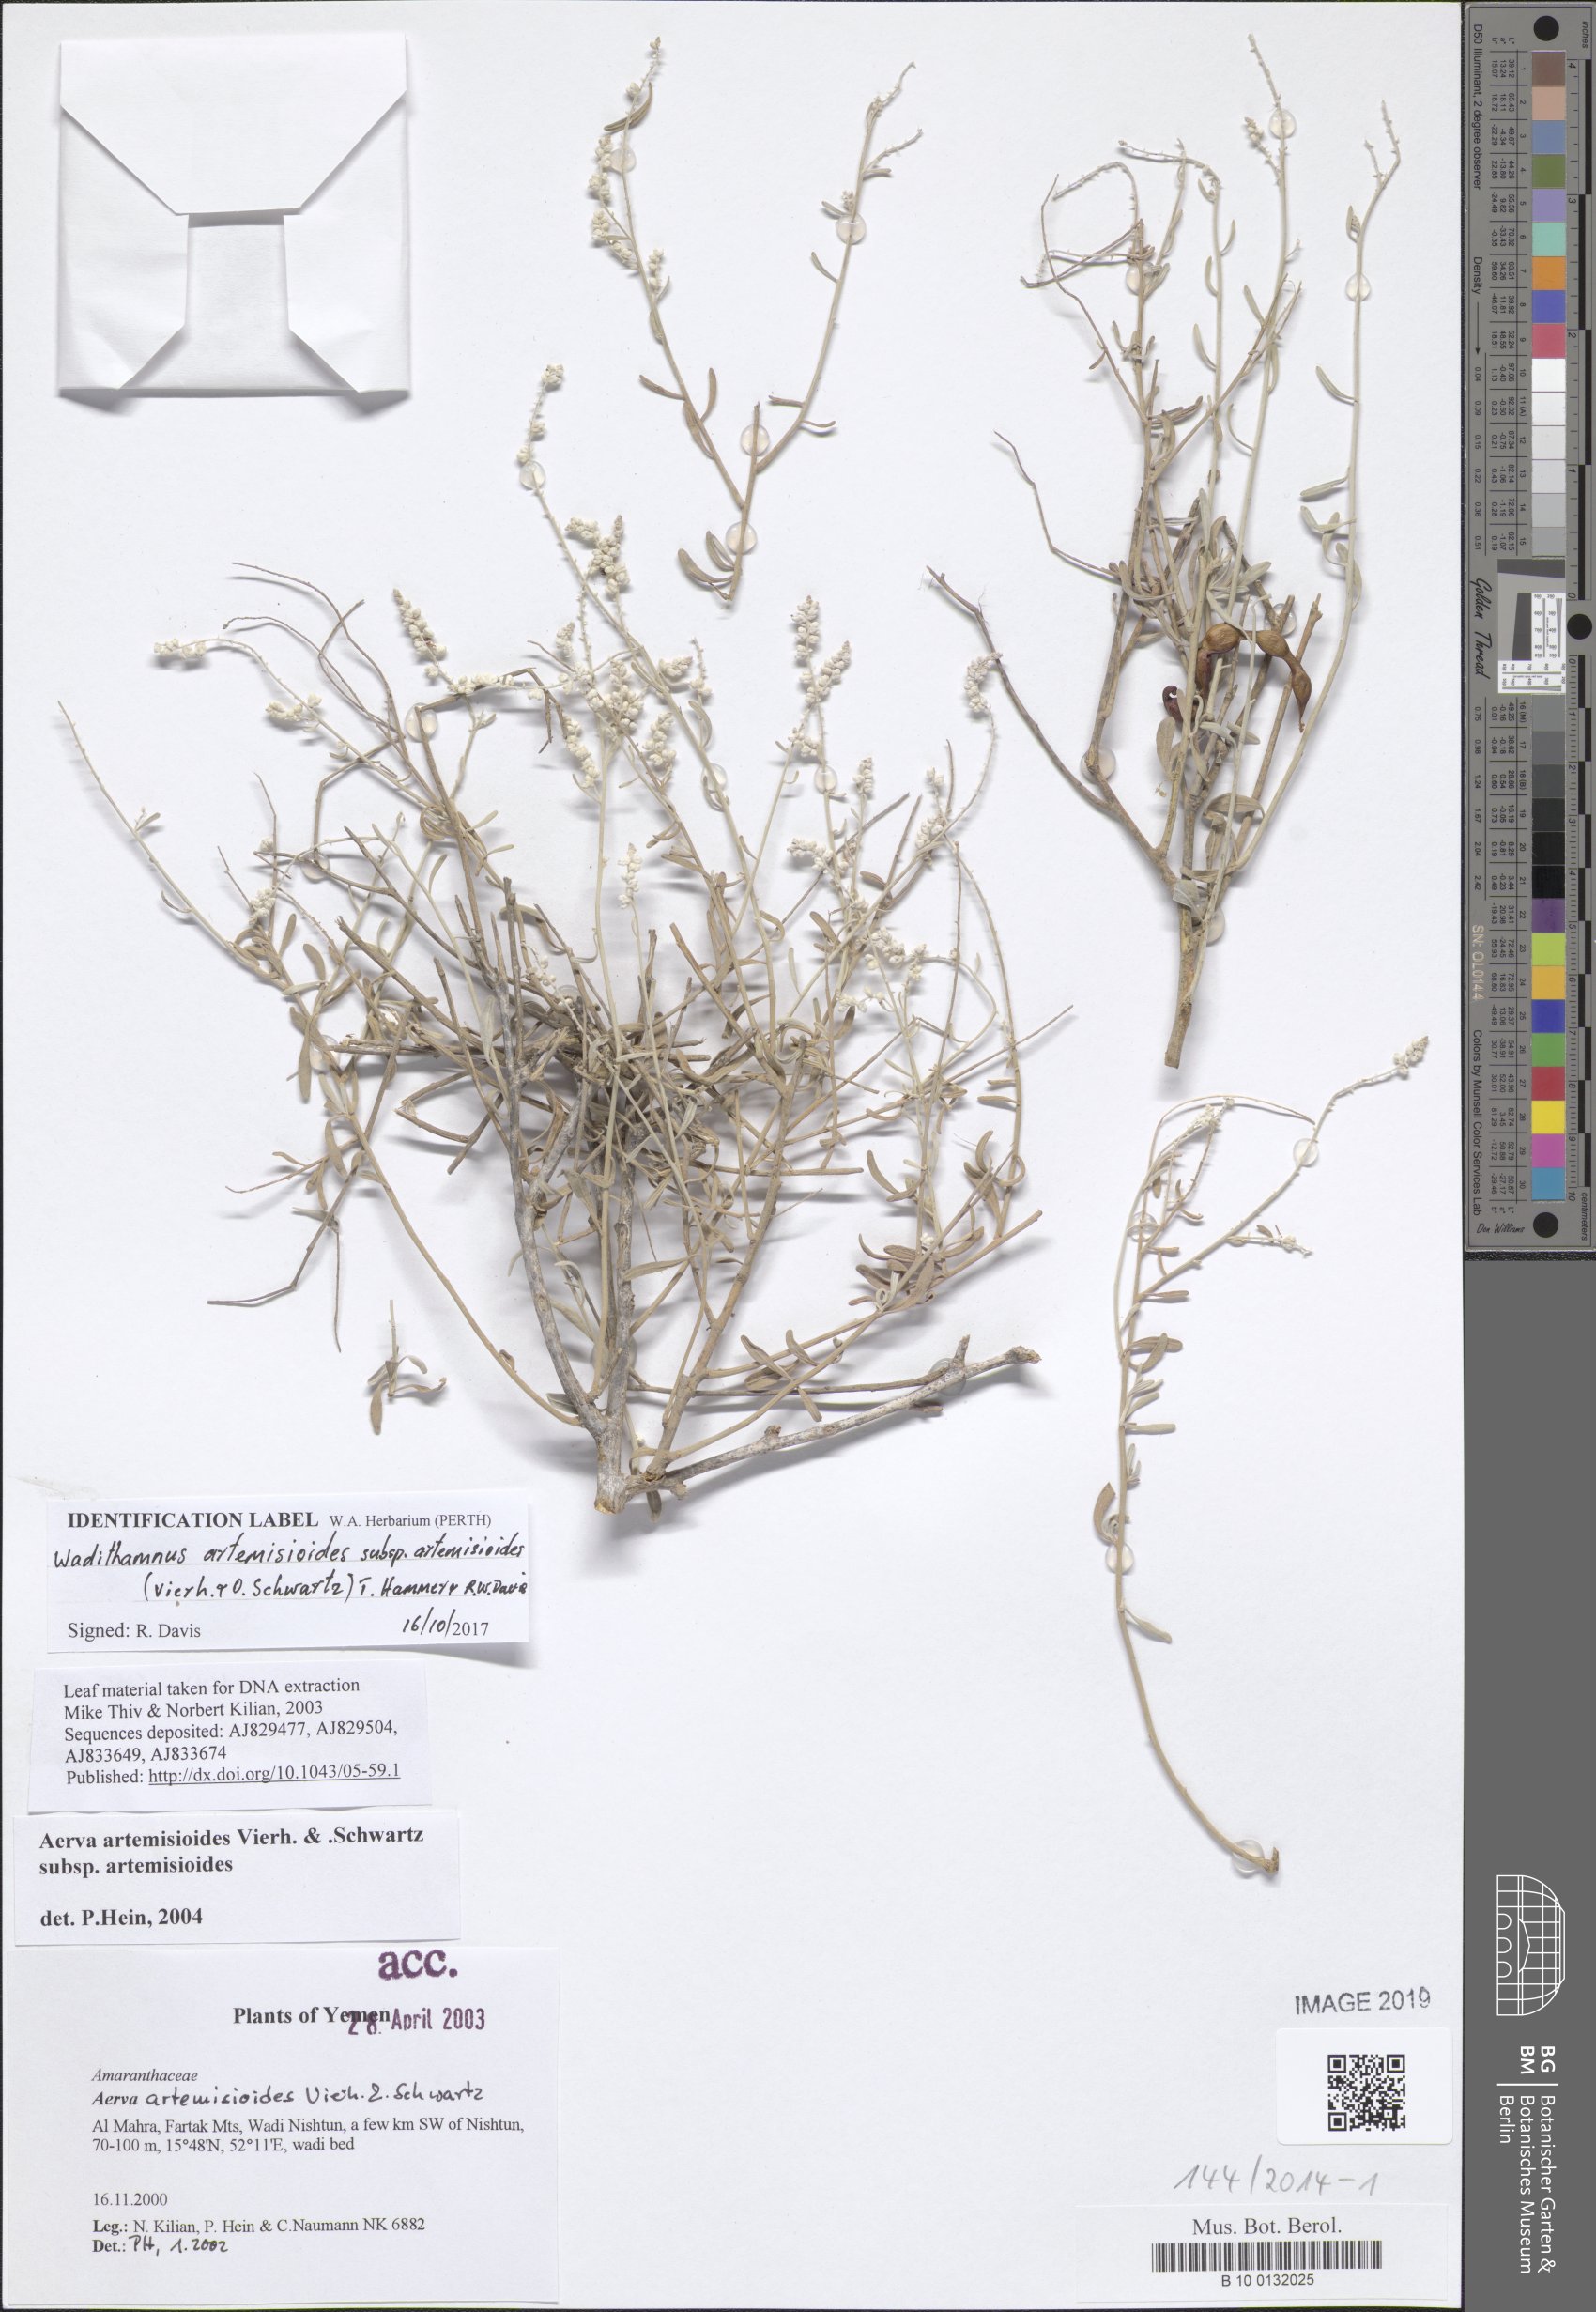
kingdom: Plantae
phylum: Tracheophyta
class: Magnoliopsida
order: Caryophyllales
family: Amaranthaceae
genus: Wadithamnus
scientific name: Wadithamnus artemisioides
